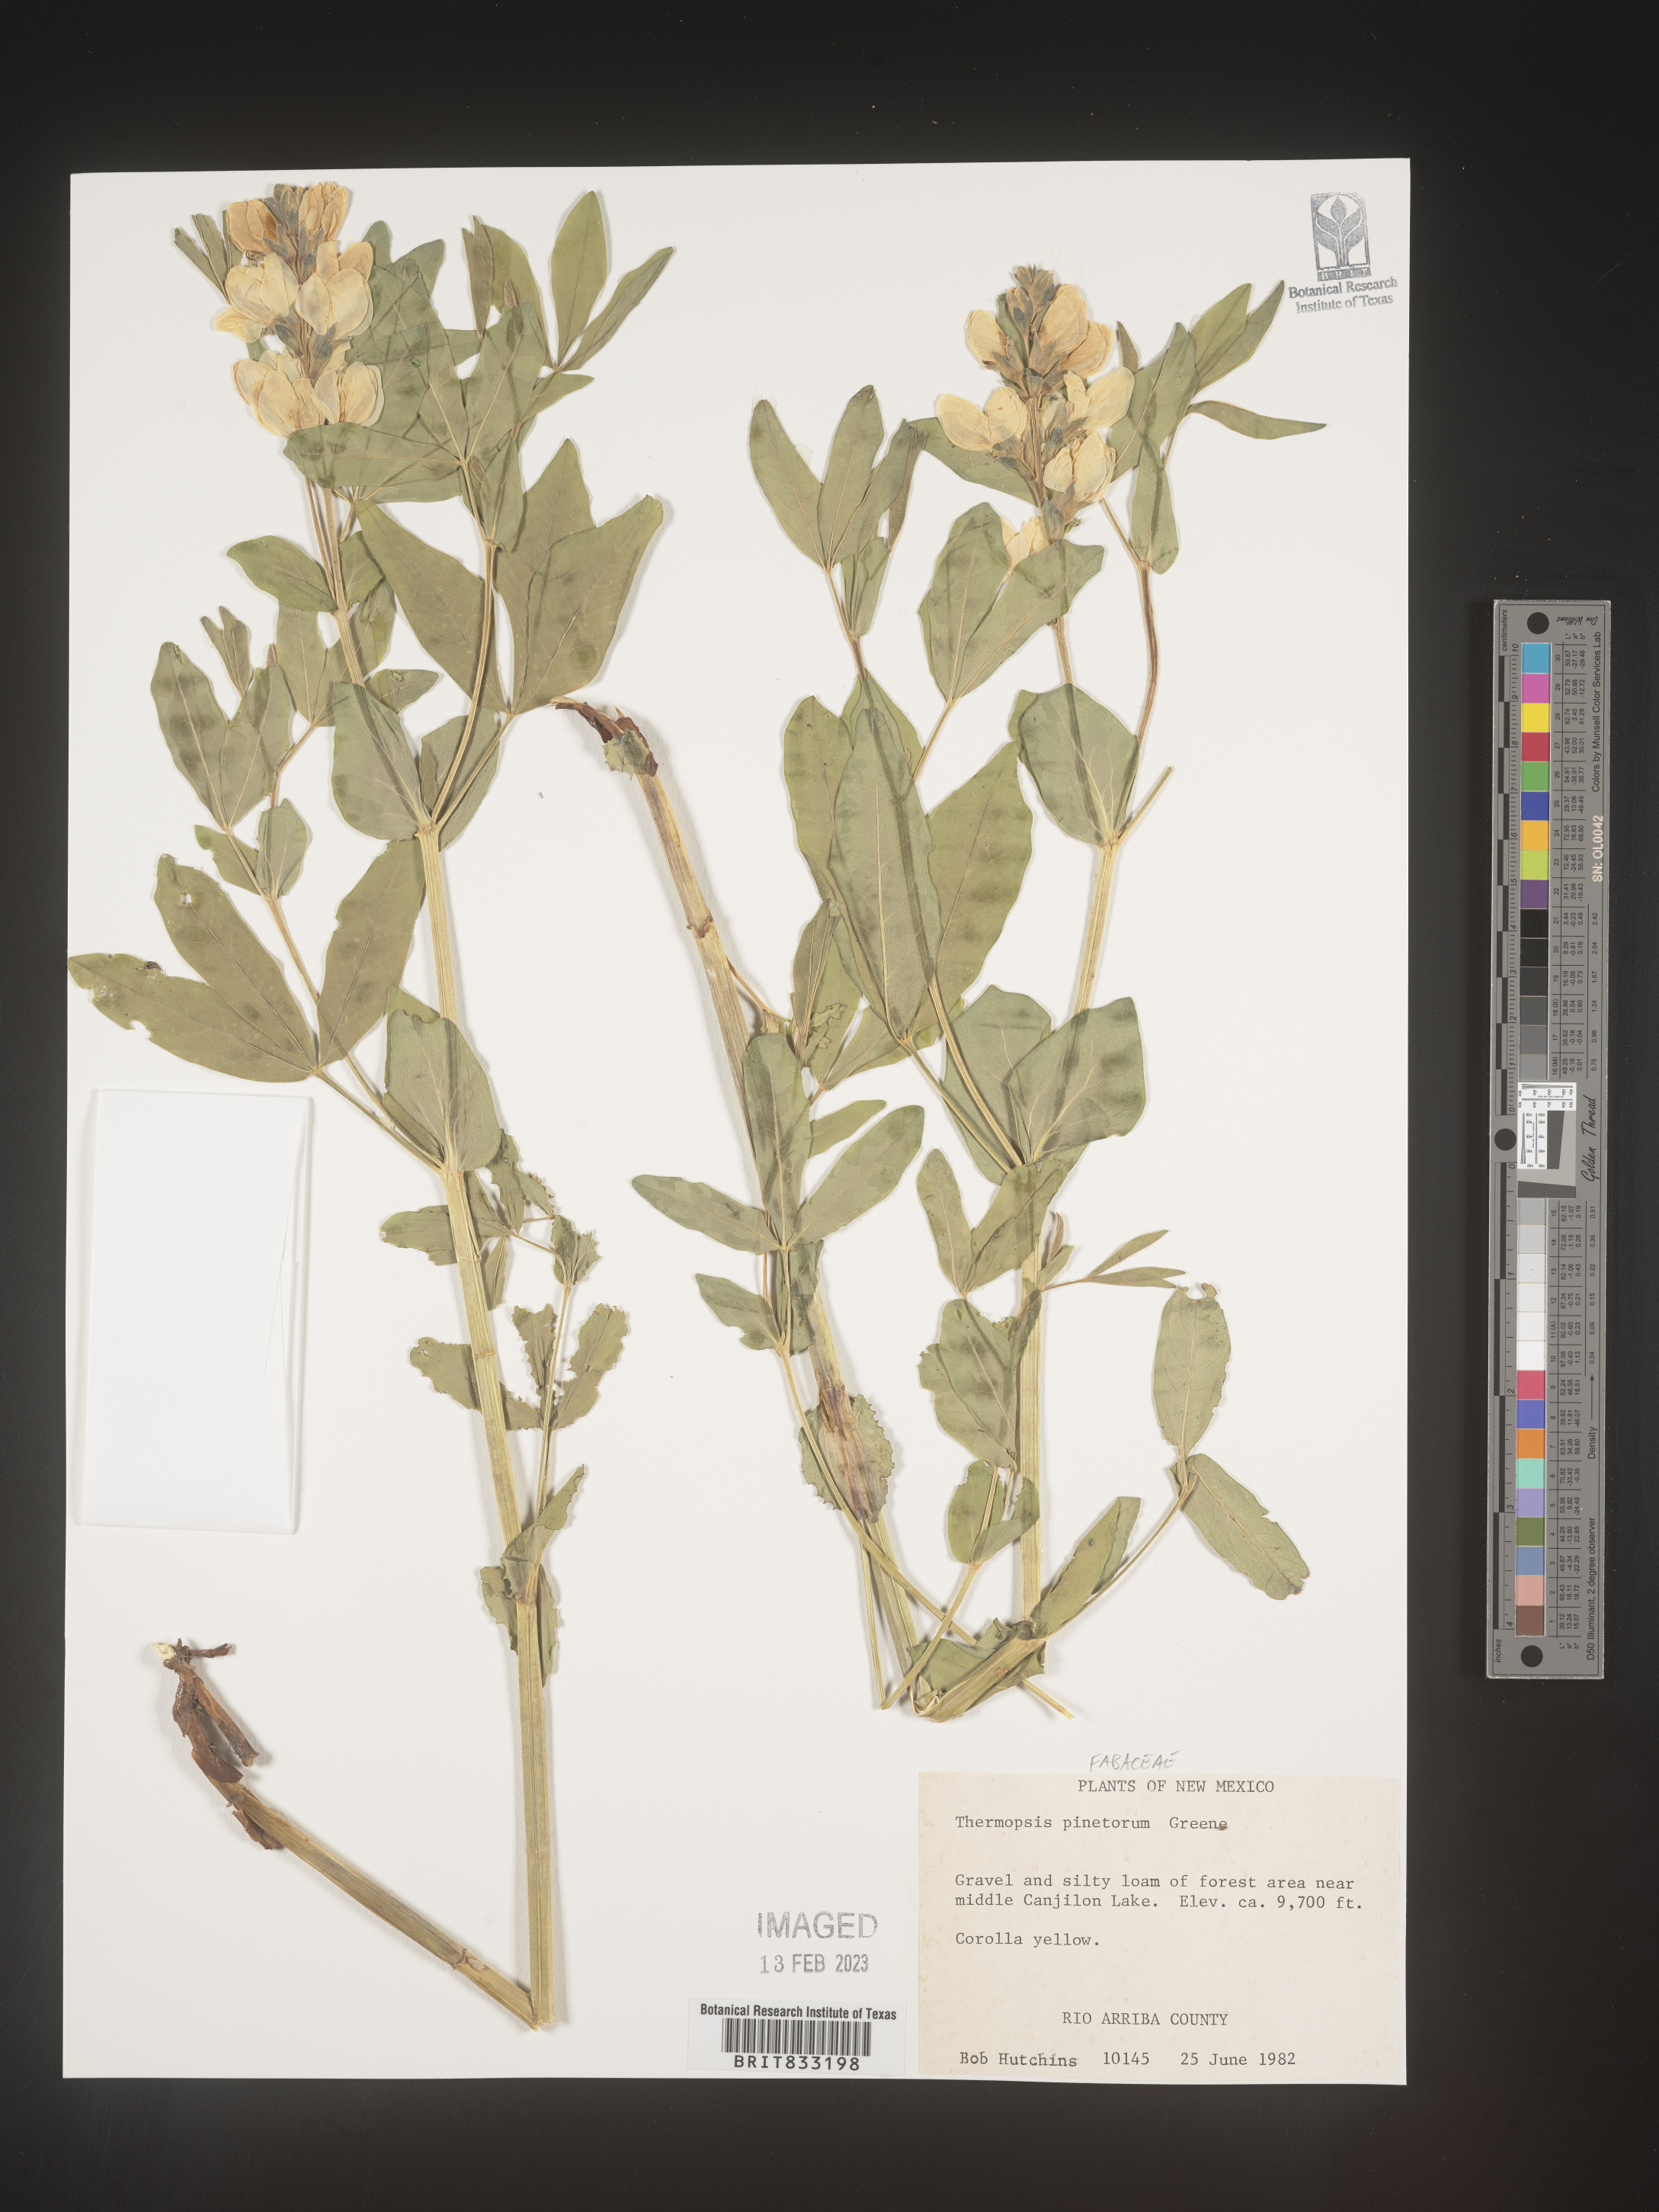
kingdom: Plantae
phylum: Tracheophyta
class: Magnoliopsida
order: Fabales
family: Fabaceae
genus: Thermopsis
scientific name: Thermopsis rhombifolia
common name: Circle-pod-pea
